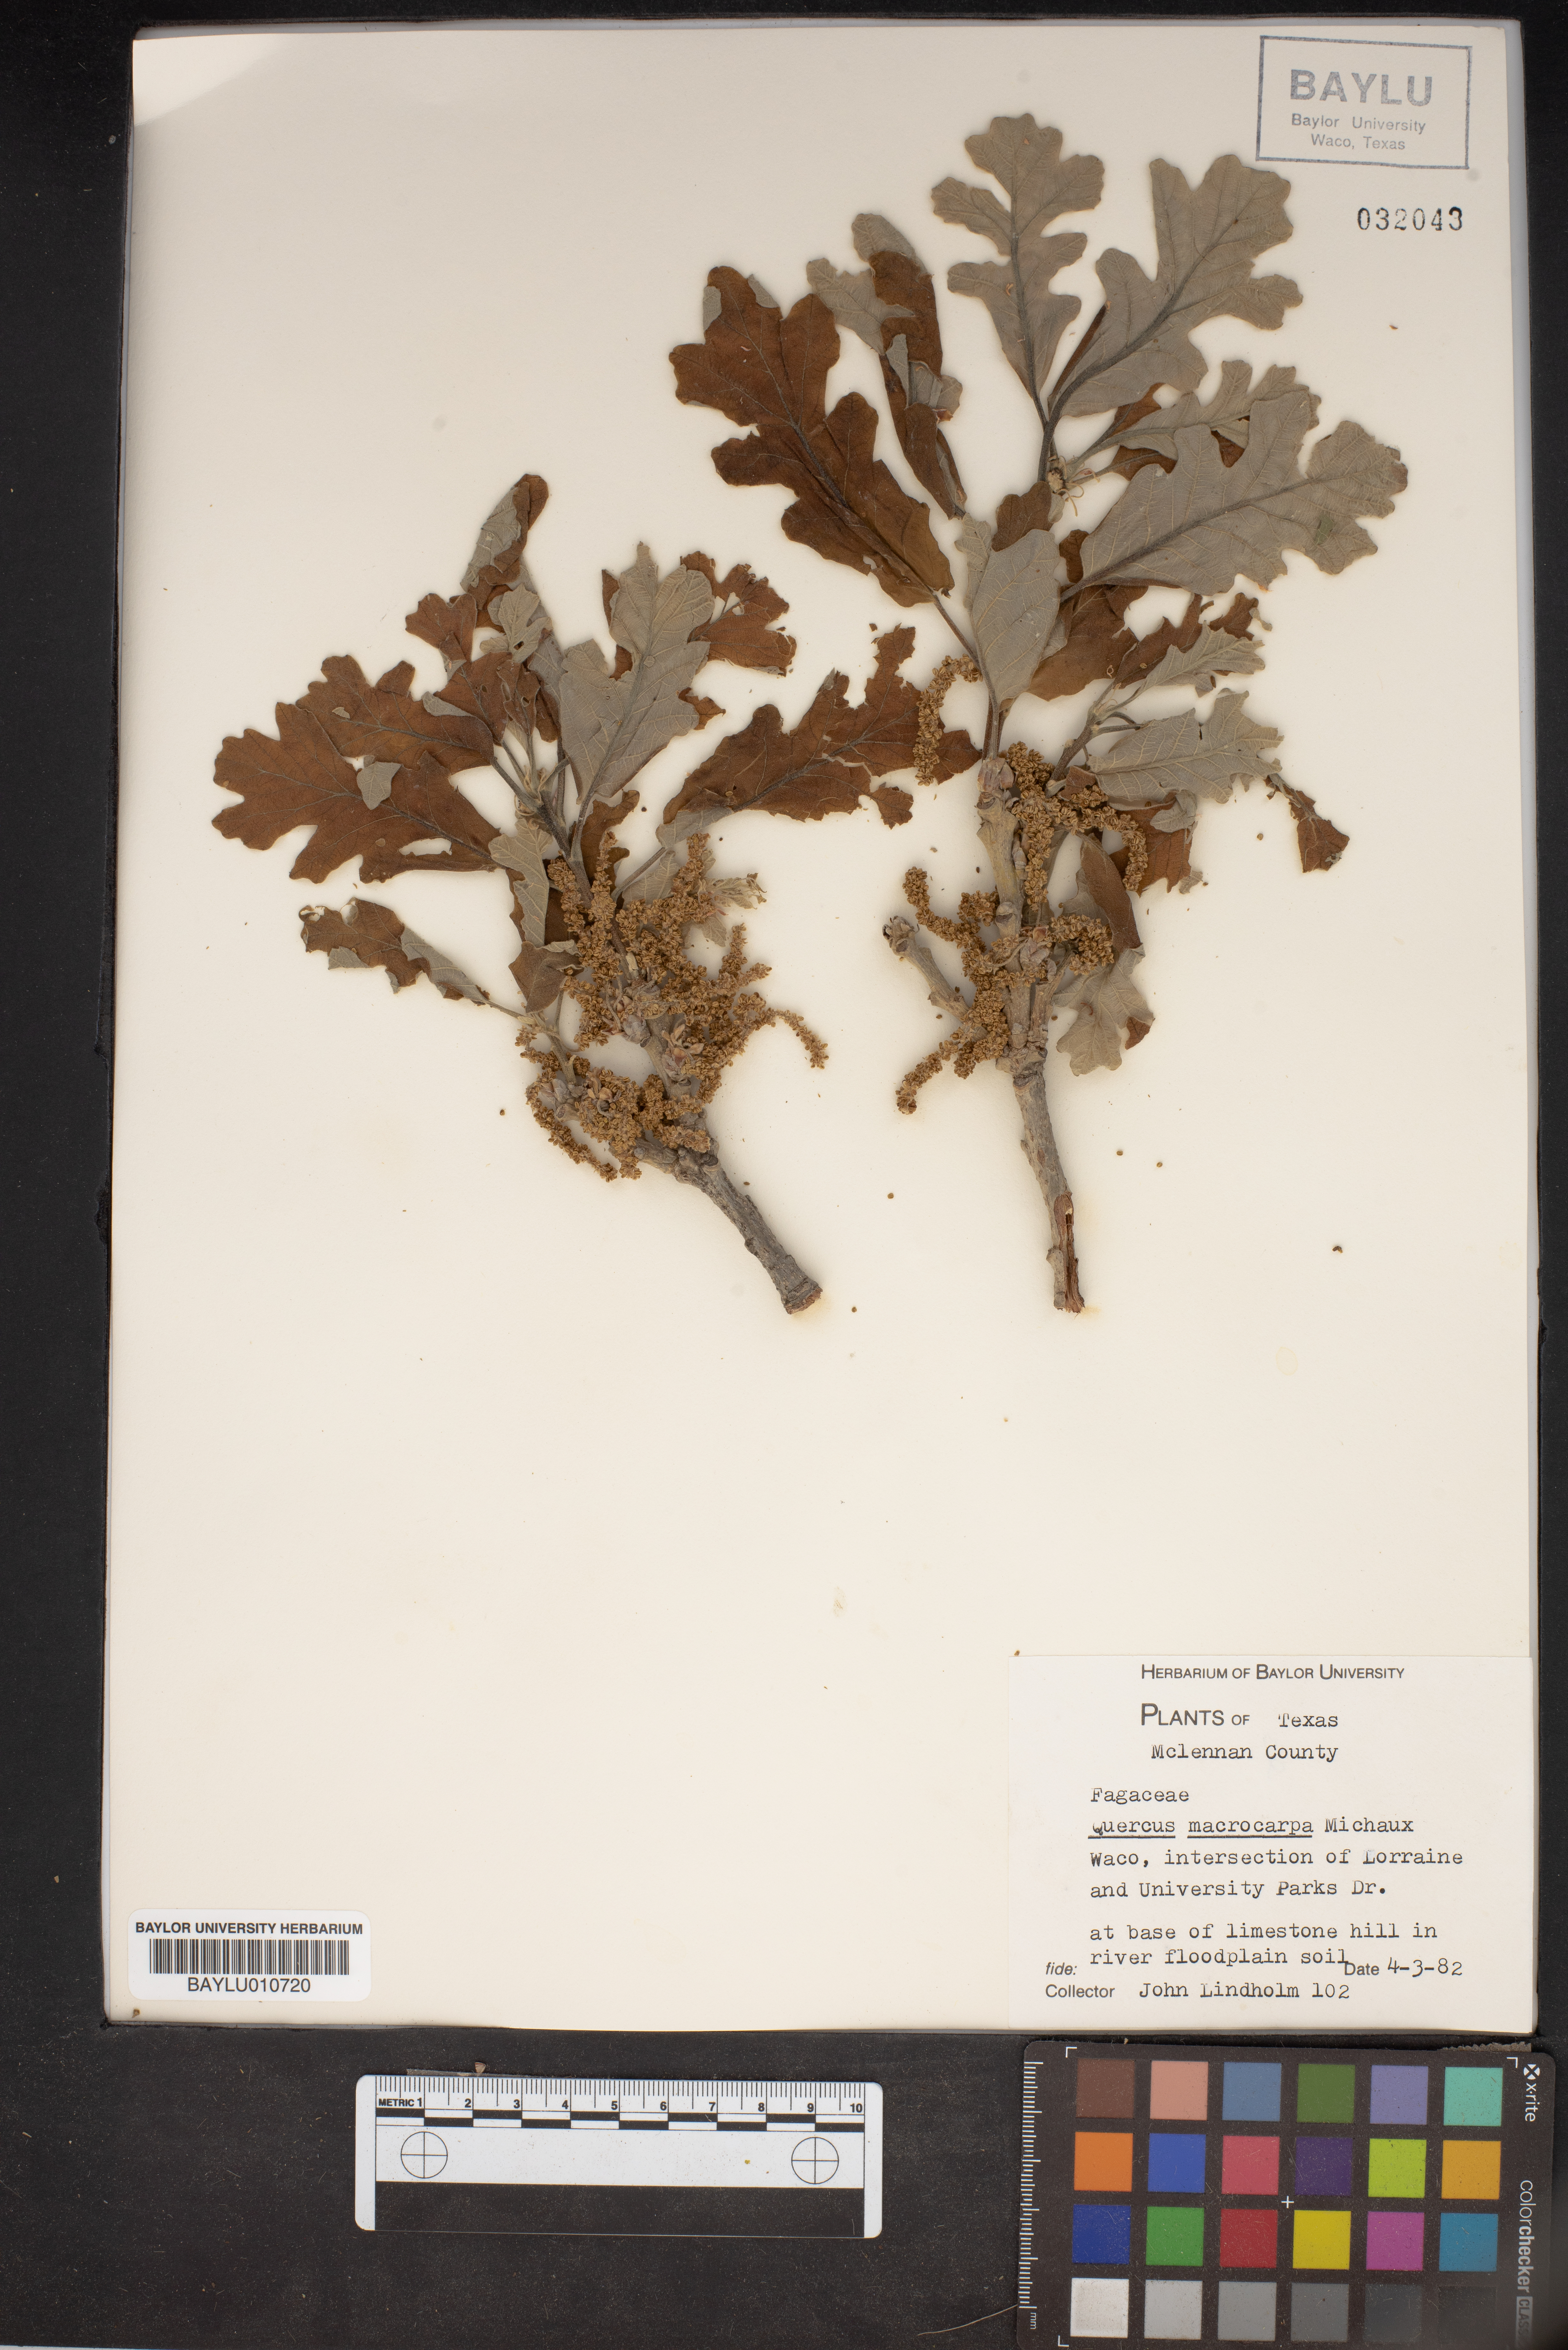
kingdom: Plantae
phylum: Tracheophyta
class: Magnoliopsida
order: Fagales
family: Fagaceae
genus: Quercus
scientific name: Quercus macrocarpa
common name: Bur oak
